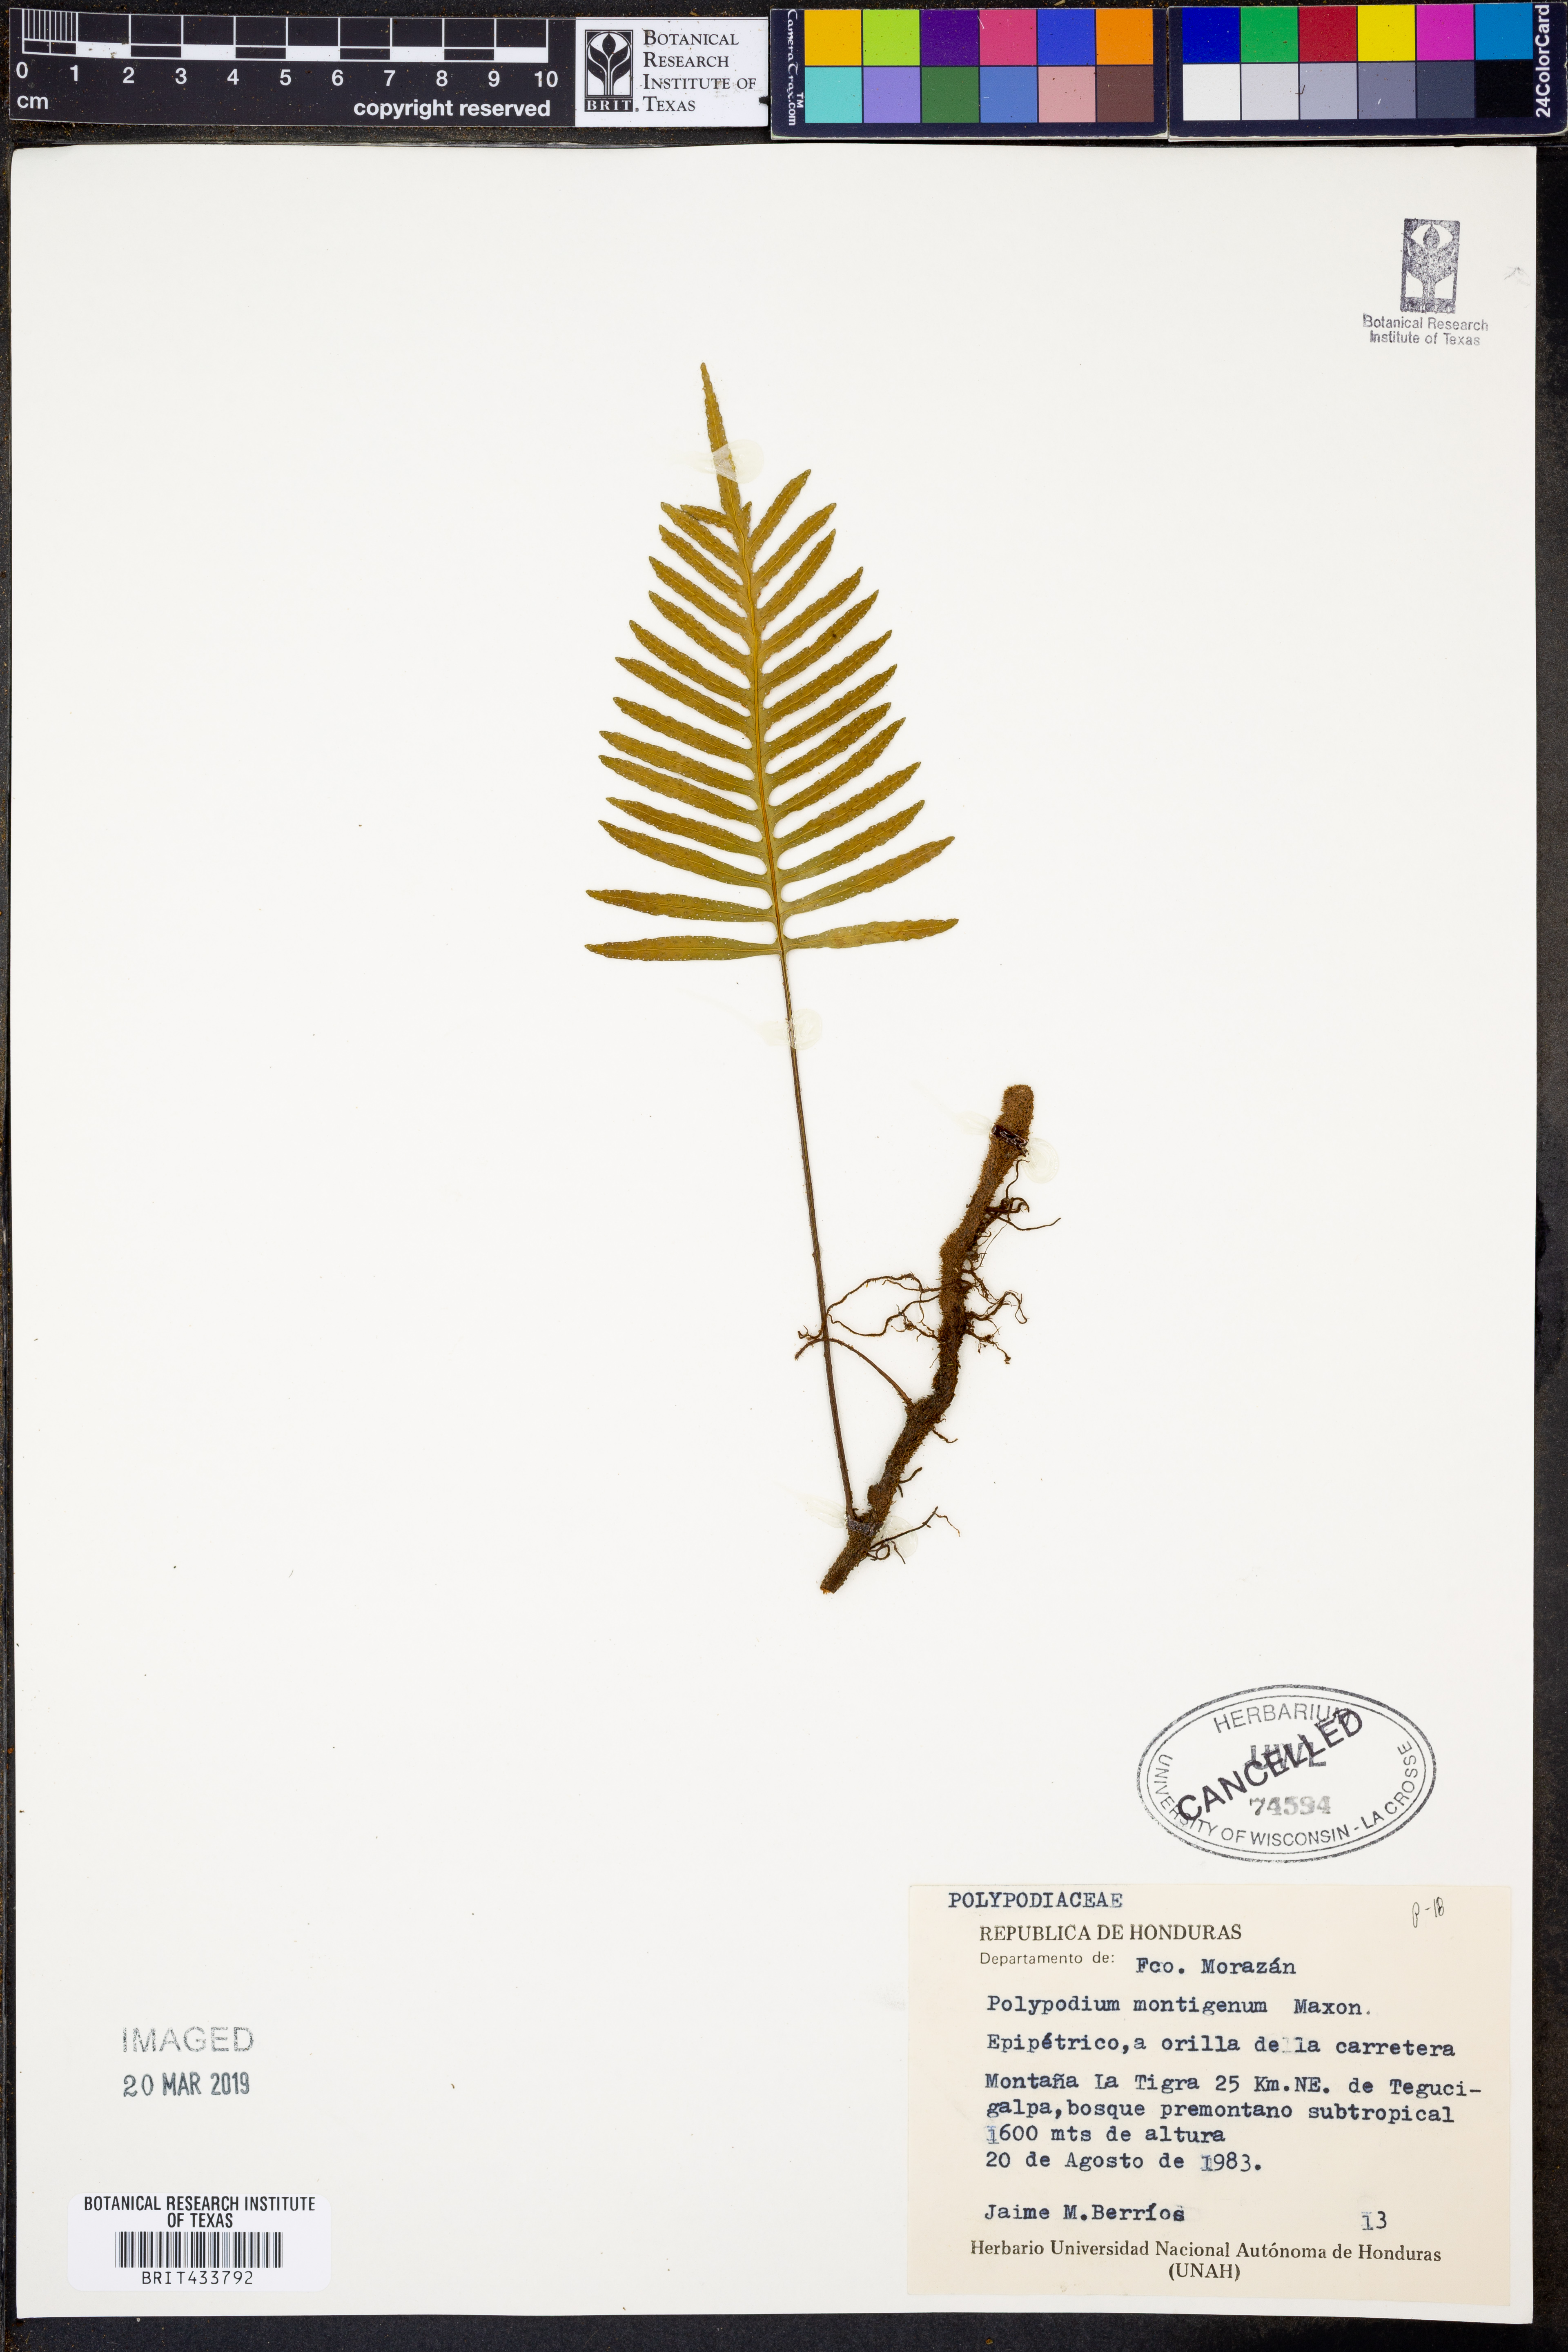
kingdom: Plantae
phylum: Tracheophyta
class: Polypodiopsida
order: Polypodiales
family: Polypodiaceae
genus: Pleopeltis
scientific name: Pleopeltis montigena
